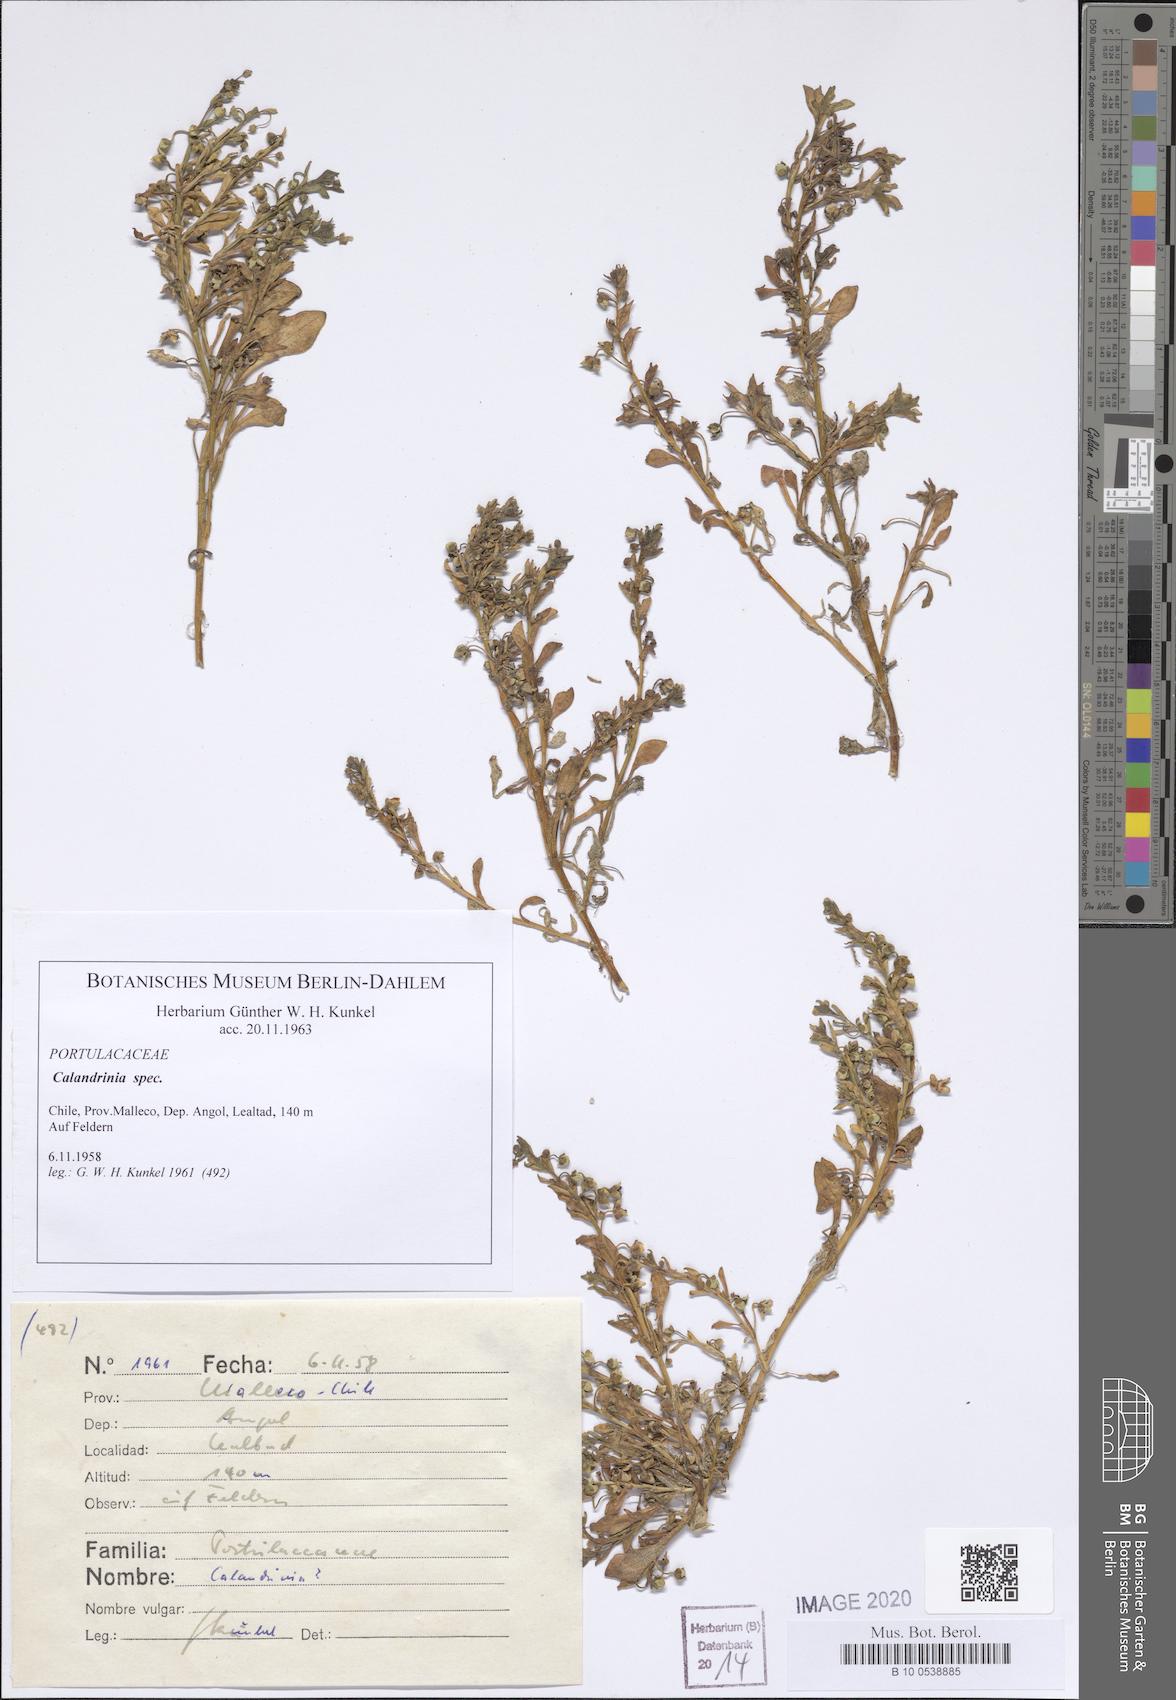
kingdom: Plantae
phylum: Tracheophyta
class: Magnoliopsida
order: Caryophyllales
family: Montiaceae
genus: Calandrinia
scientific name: Calandrinia
